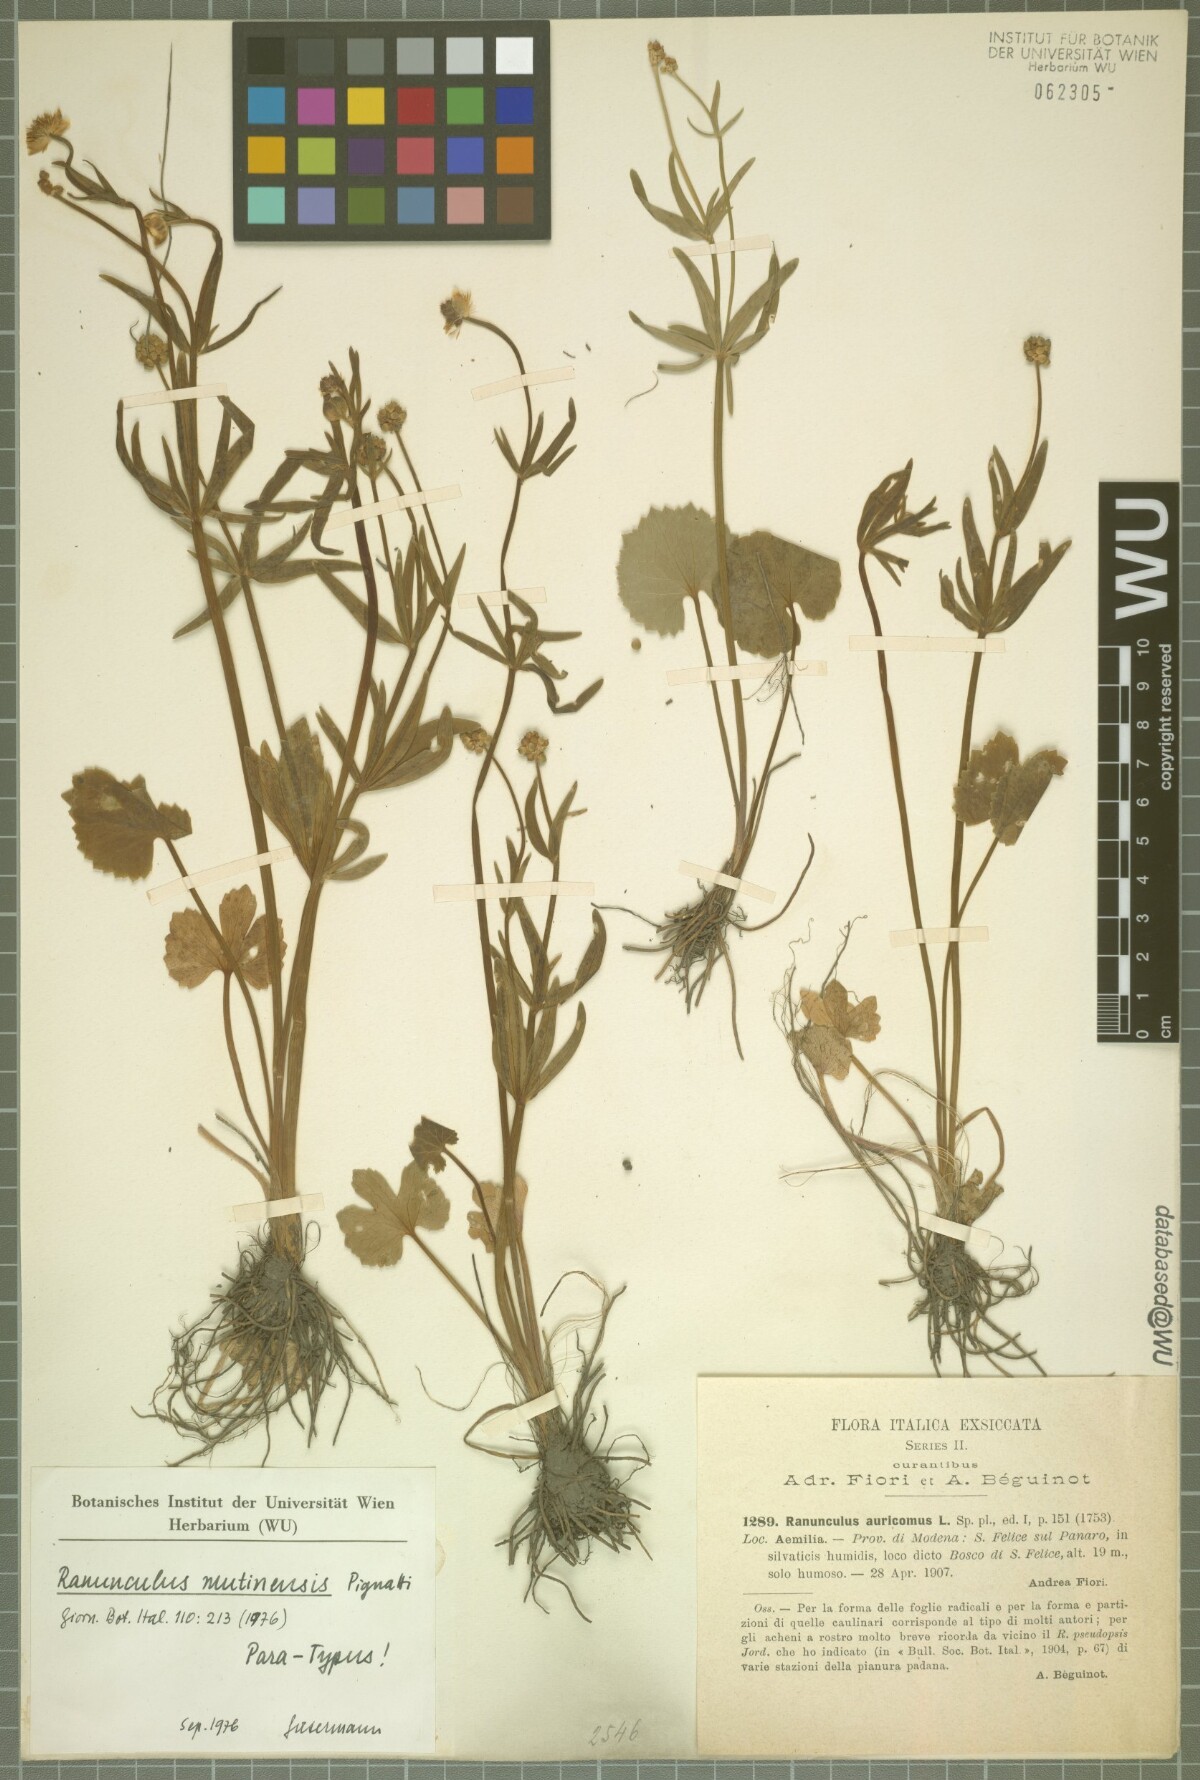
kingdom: Plantae
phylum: Tracheophyta
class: Magnoliopsida
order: Ranunculales
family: Ranunculaceae
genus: Ranunculus
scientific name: Ranunculus mutinensis
